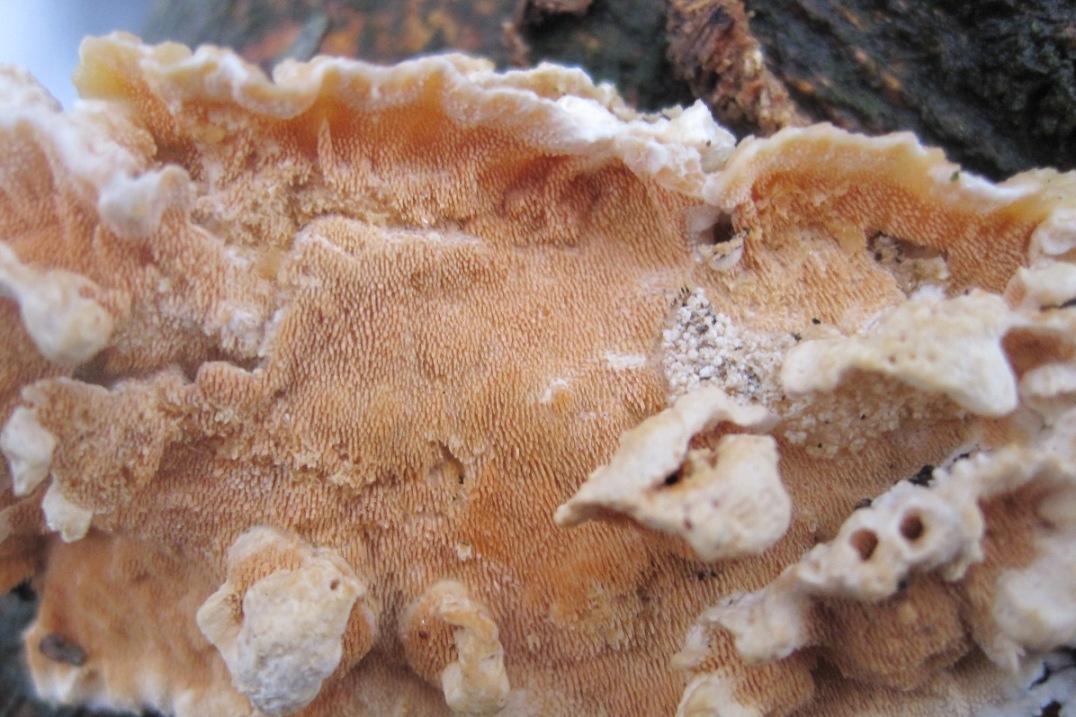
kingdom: Fungi
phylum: Basidiomycota
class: Agaricomycetes
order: Polyporales
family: Steccherinaceae
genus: Steccherinum
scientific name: Steccherinum ochraceum
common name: almindelig skønpig
